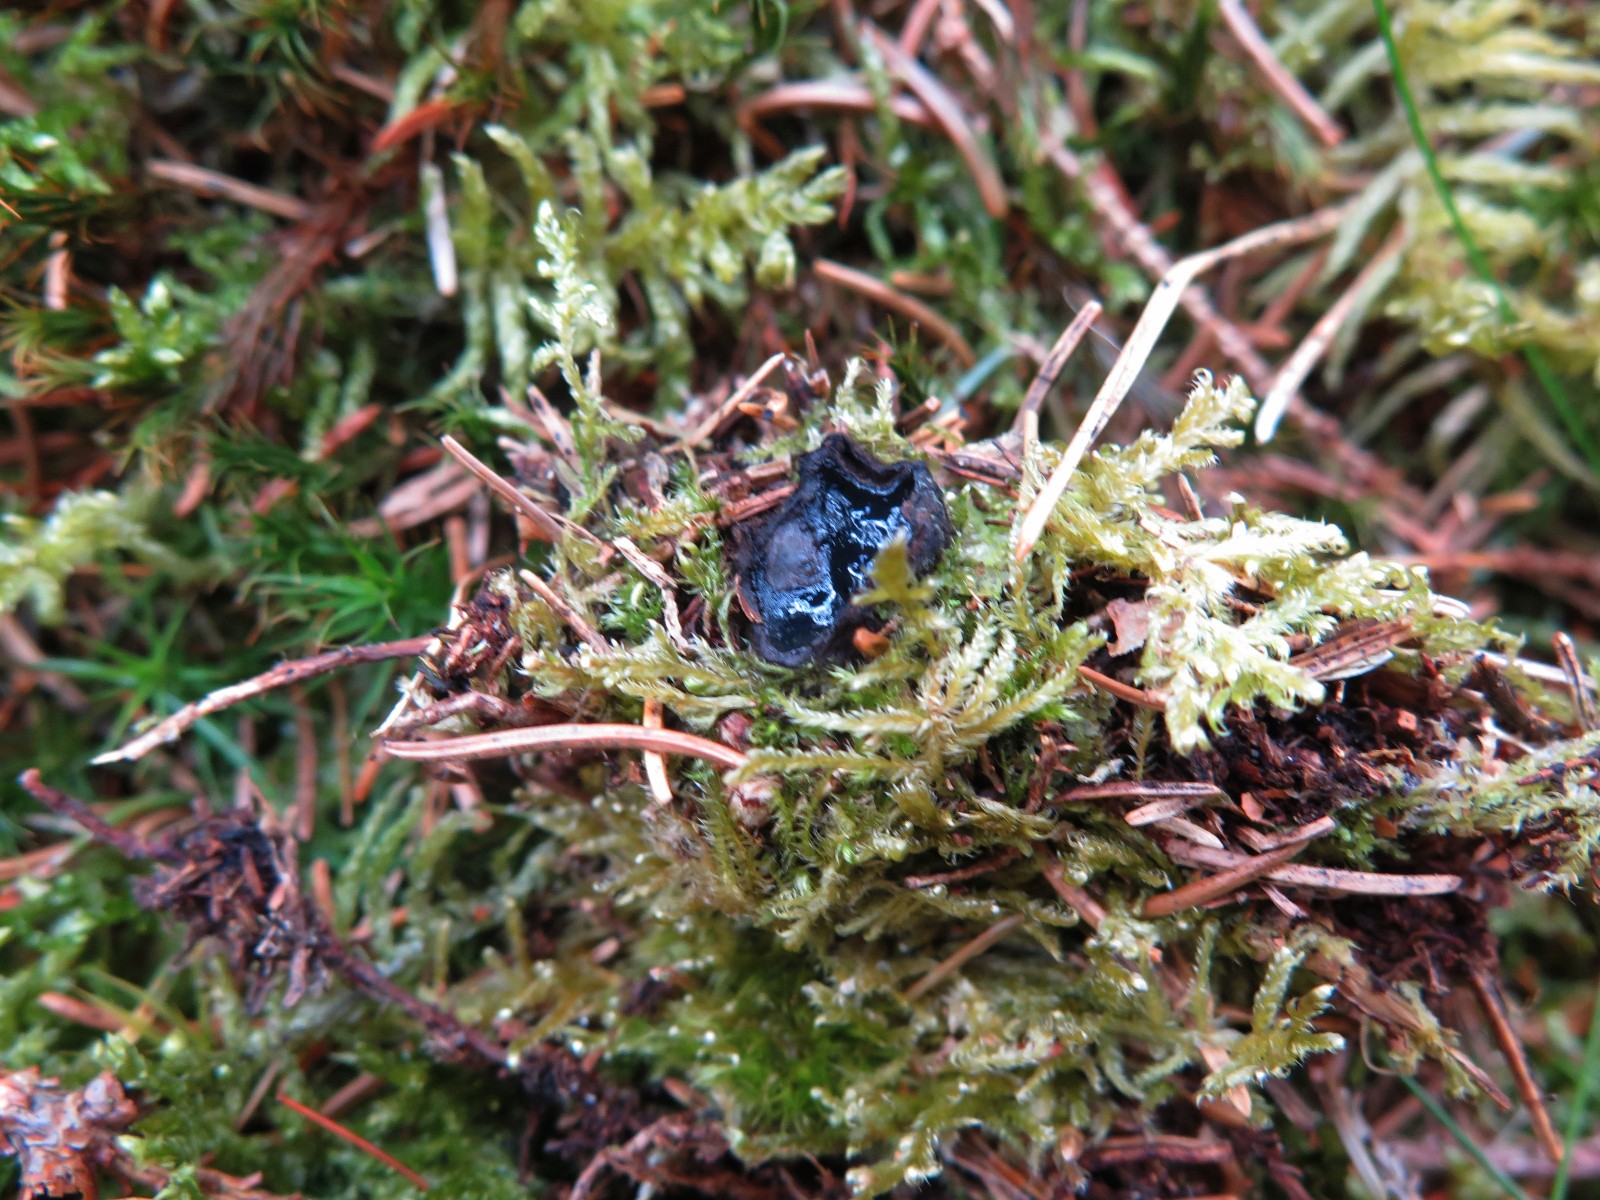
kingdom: Fungi
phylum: Ascomycota
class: Pezizomycetes
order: Pezizales
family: Sarcosomataceae
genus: Pseudoplectania
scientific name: Pseudoplectania nigrella
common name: almindelig sortbæger
